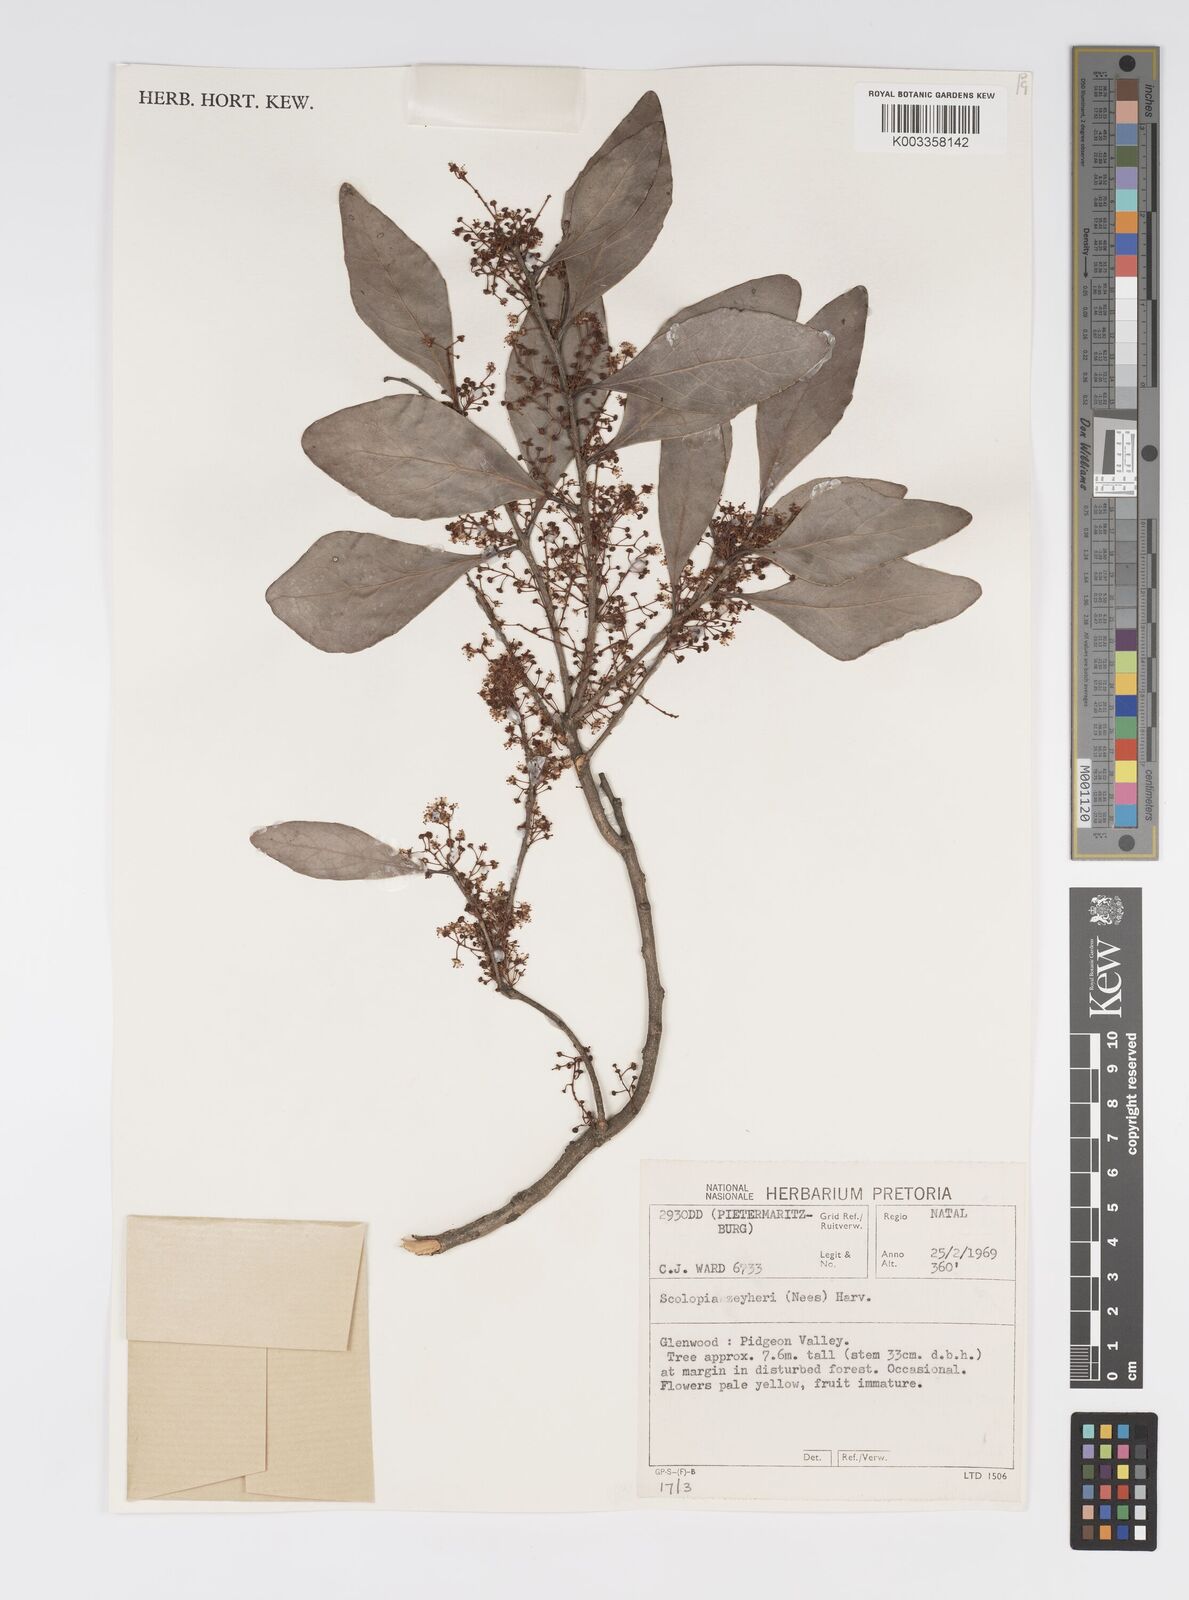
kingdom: Plantae
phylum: Tracheophyta
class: Magnoliopsida
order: Malpighiales
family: Salicaceae
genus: Scolopia
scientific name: Scolopia zeyheri
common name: Thorn pear
